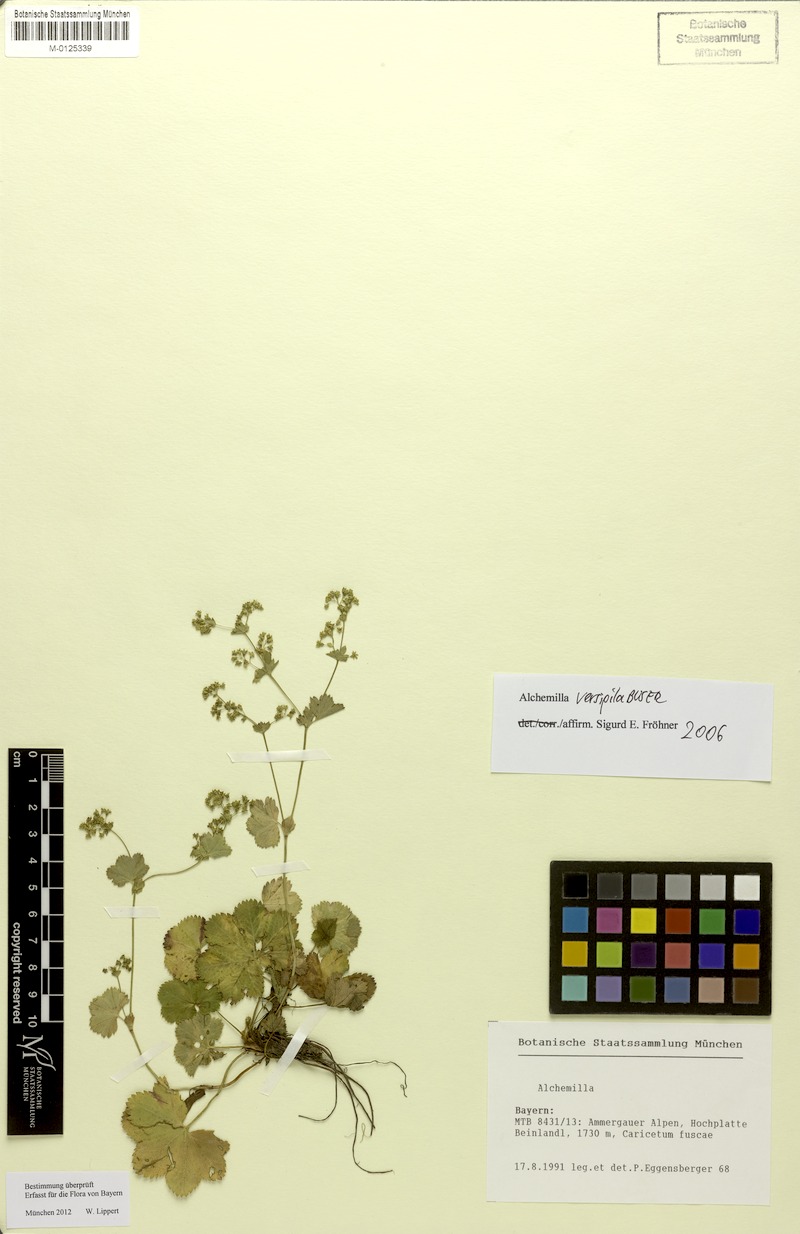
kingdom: Plantae
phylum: Tracheophyta
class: Magnoliopsida
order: Rosales
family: Rosaceae
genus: Alchemilla
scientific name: Alchemilla versipila
